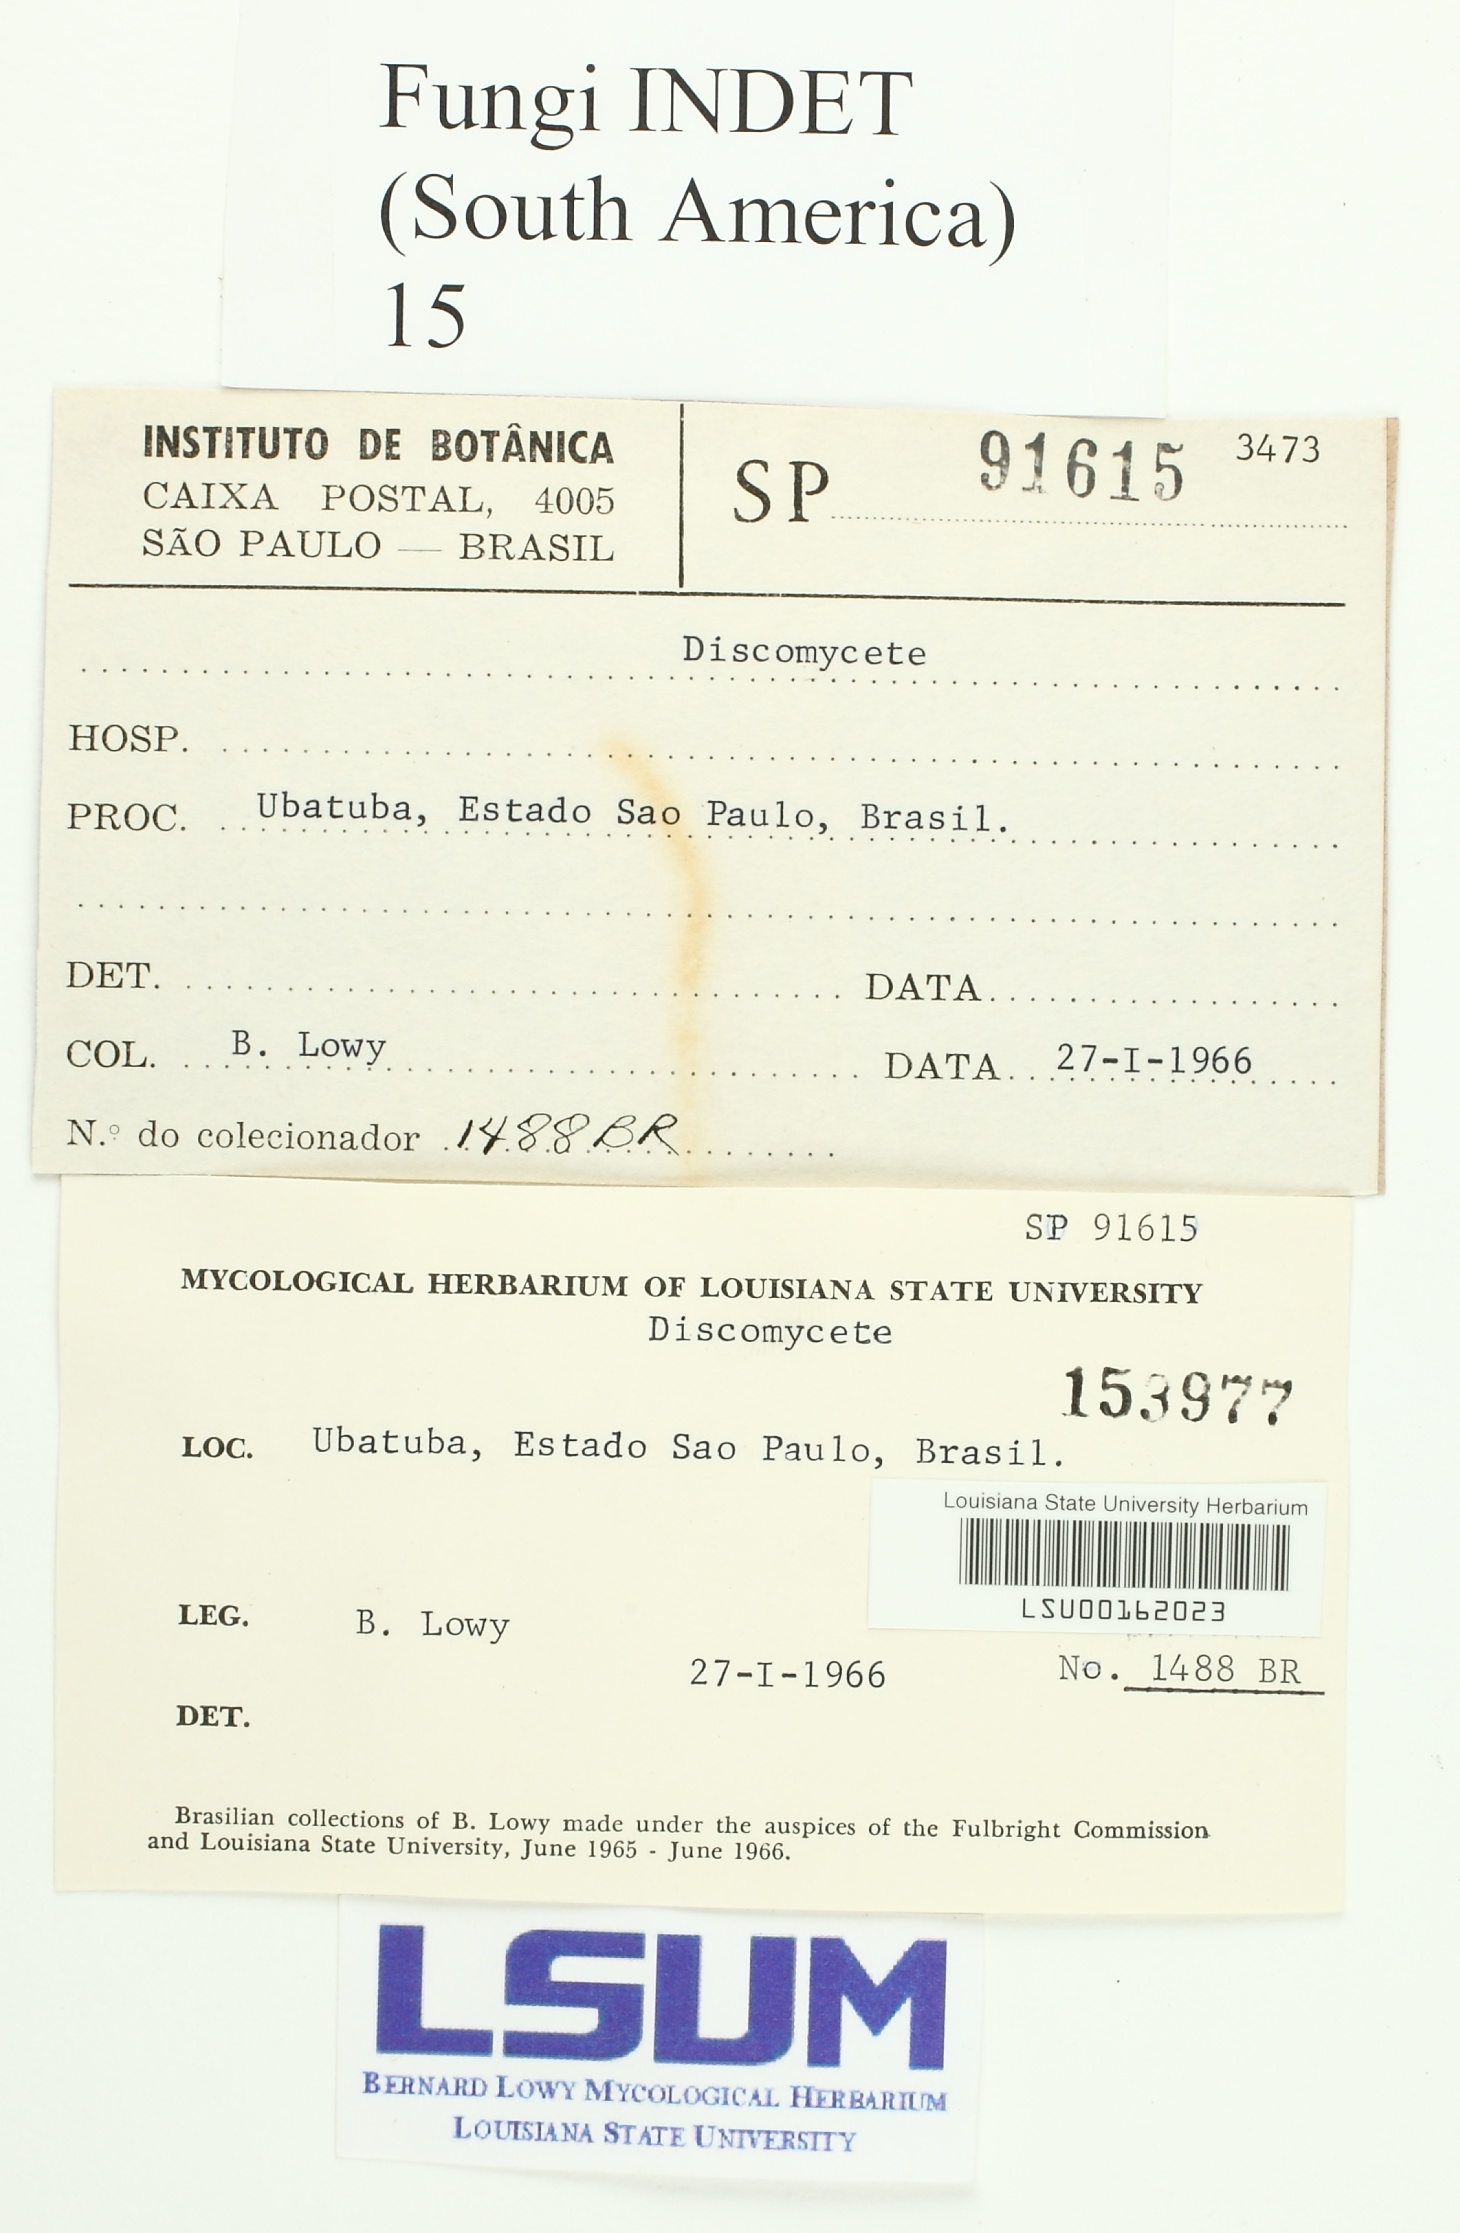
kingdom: Fungi
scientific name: Fungi
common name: Fungi
